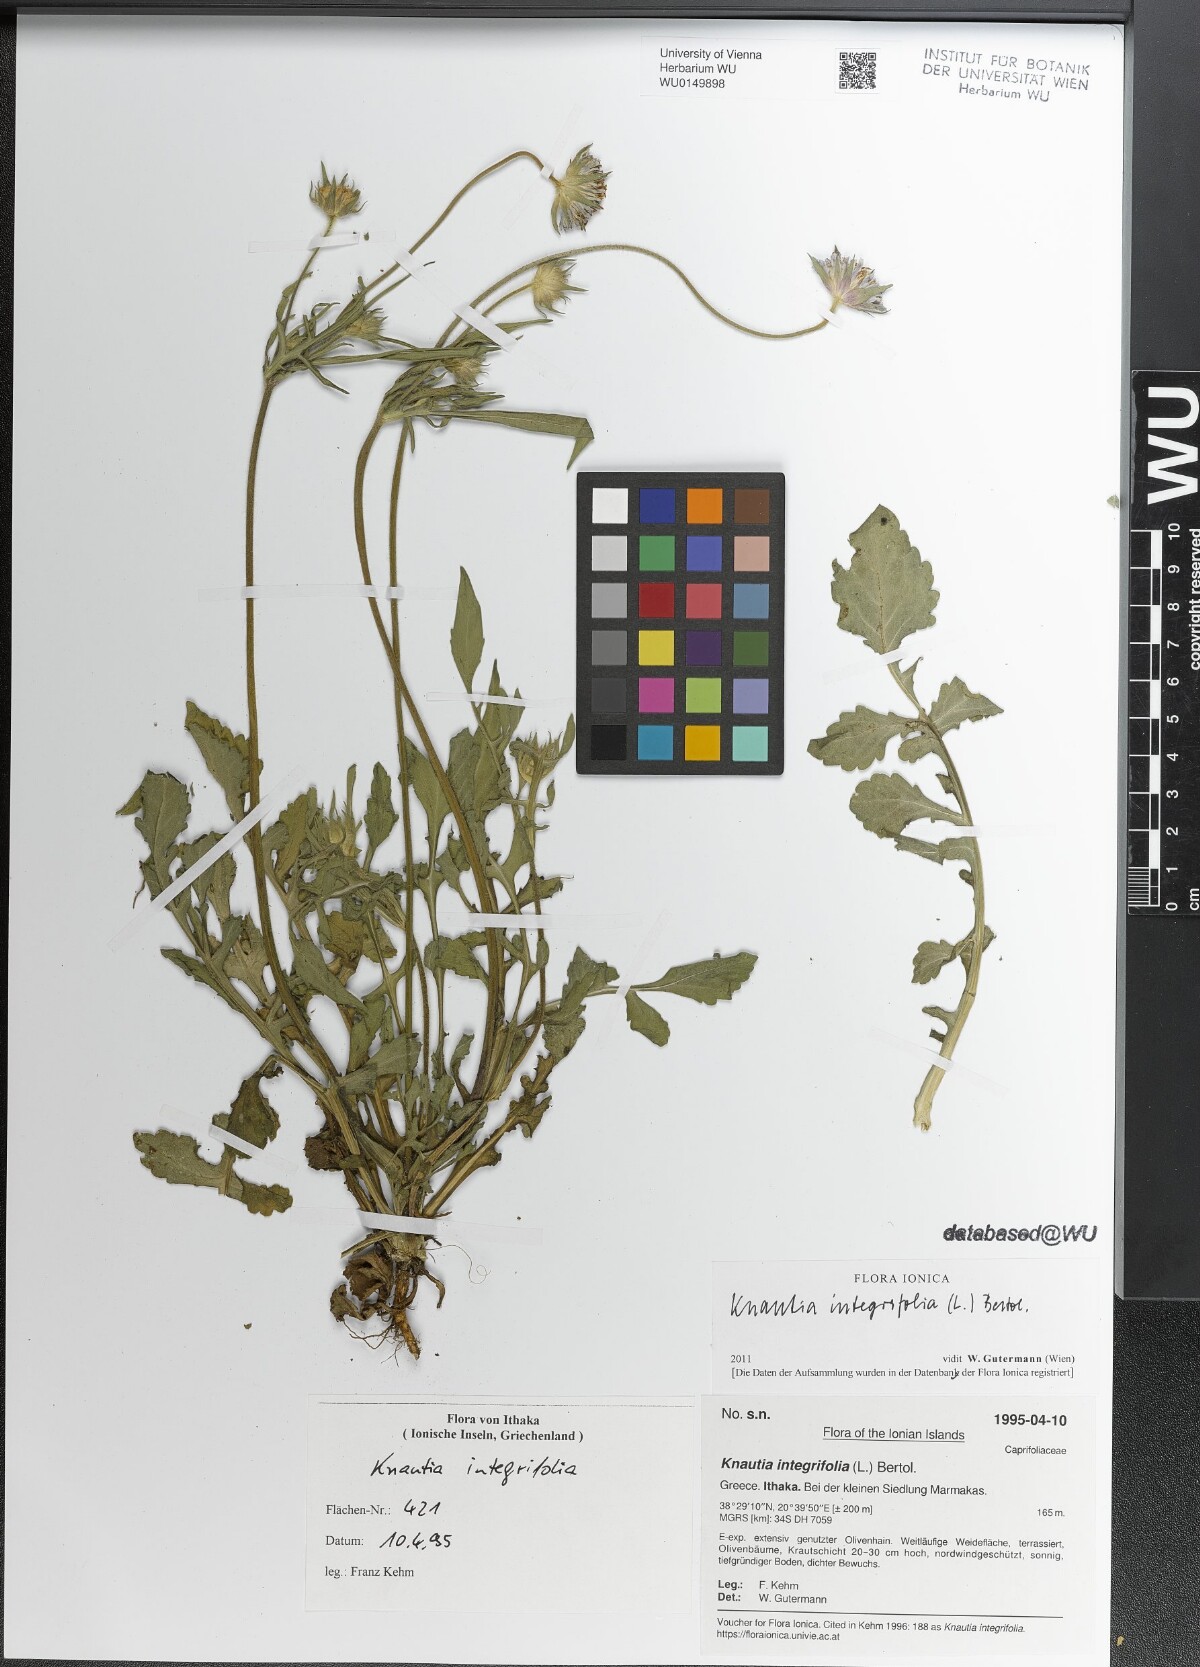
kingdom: Plantae
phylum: Tracheophyta
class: Magnoliopsida
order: Dipsacales
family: Caprifoliaceae
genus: Knautia
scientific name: Knautia integrifolia
